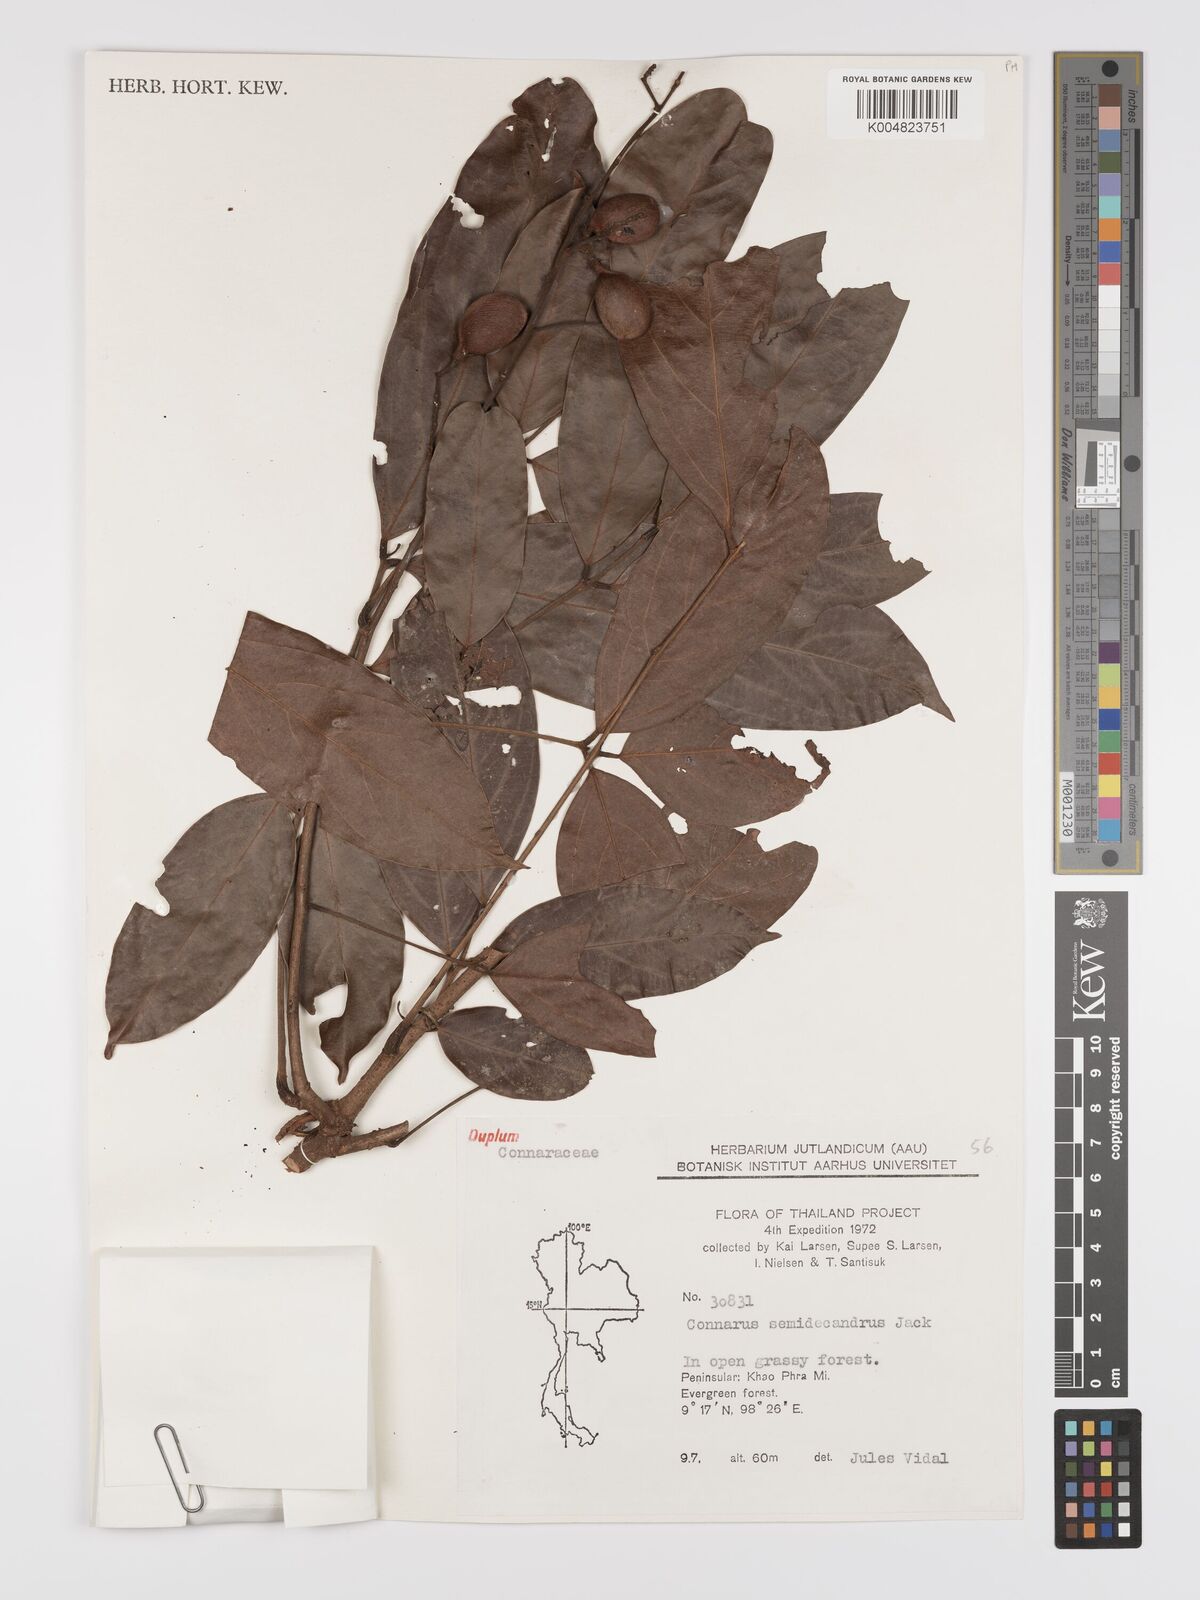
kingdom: Plantae
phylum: Tracheophyta
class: Magnoliopsida
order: Oxalidales
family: Connaraceae
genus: Connarus
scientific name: Connarus semidecandrus
